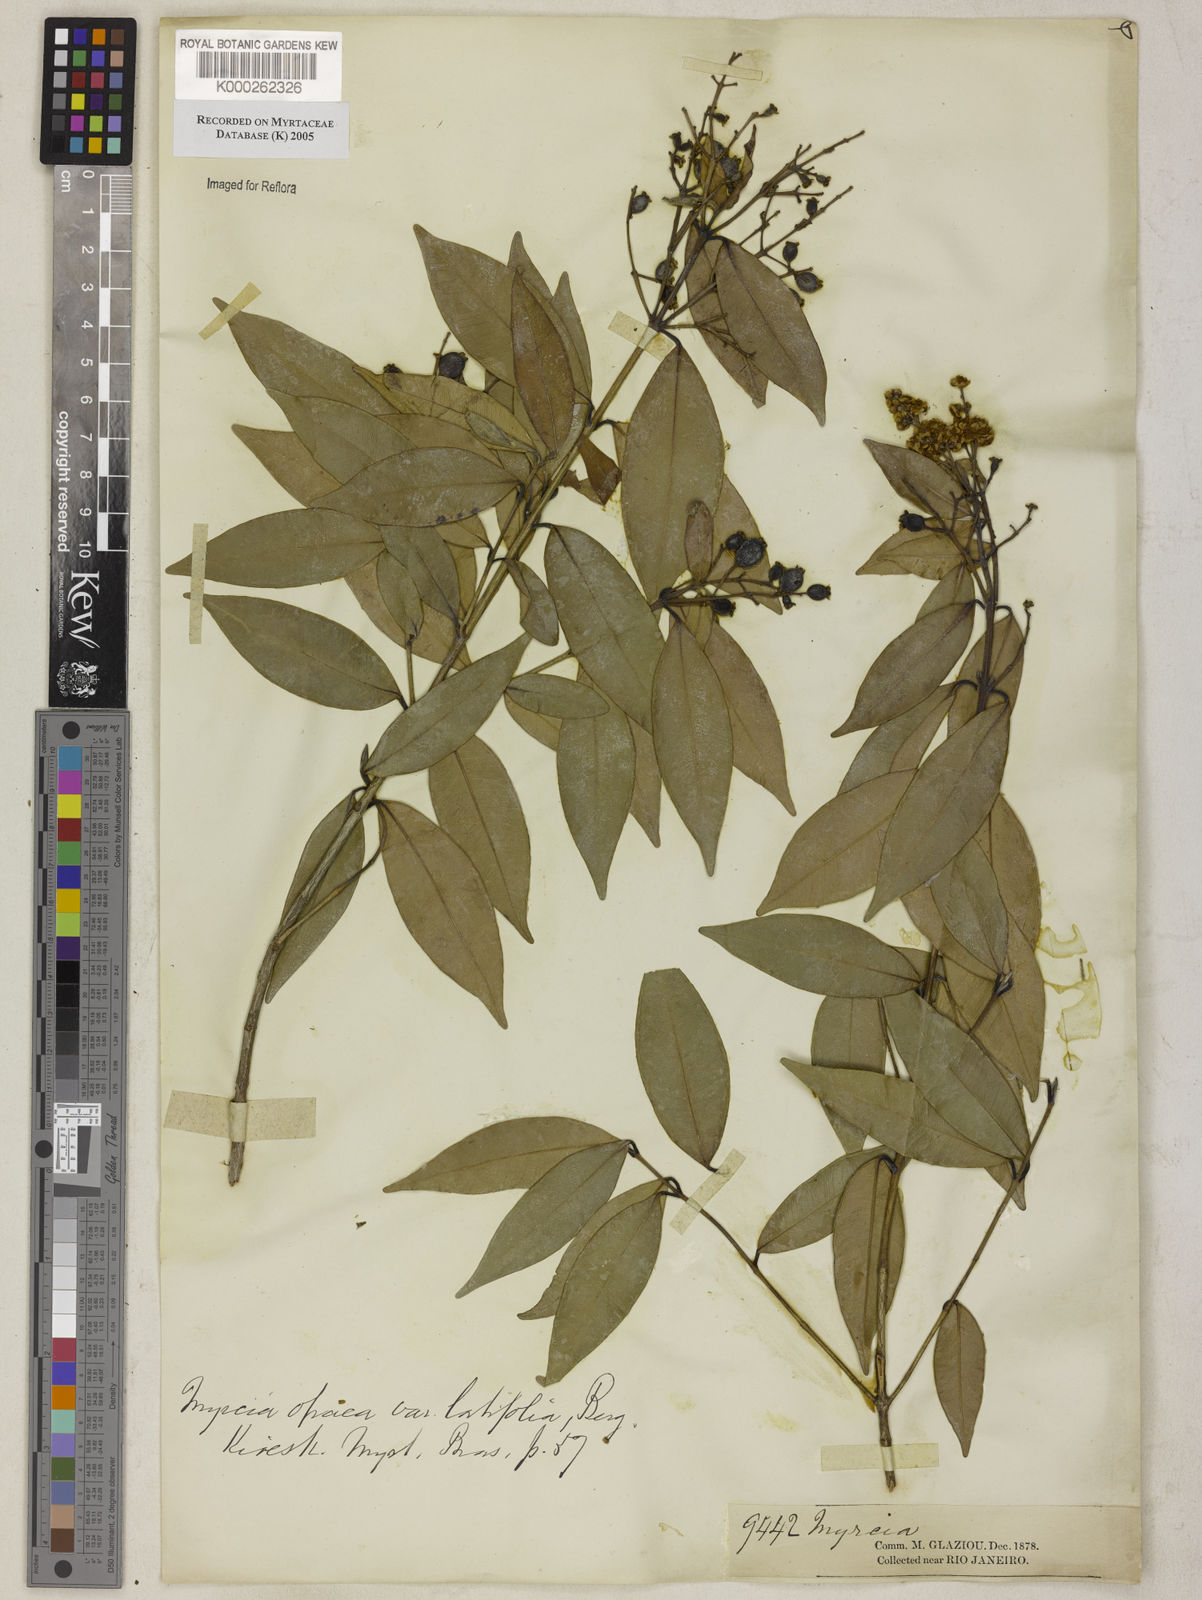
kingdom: Plantae
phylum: Tracheophyta
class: Magnoliopsida
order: Myrtales
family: Myrtaceae
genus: Myrcia
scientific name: Myrcia splendens
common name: Surinam cherry
